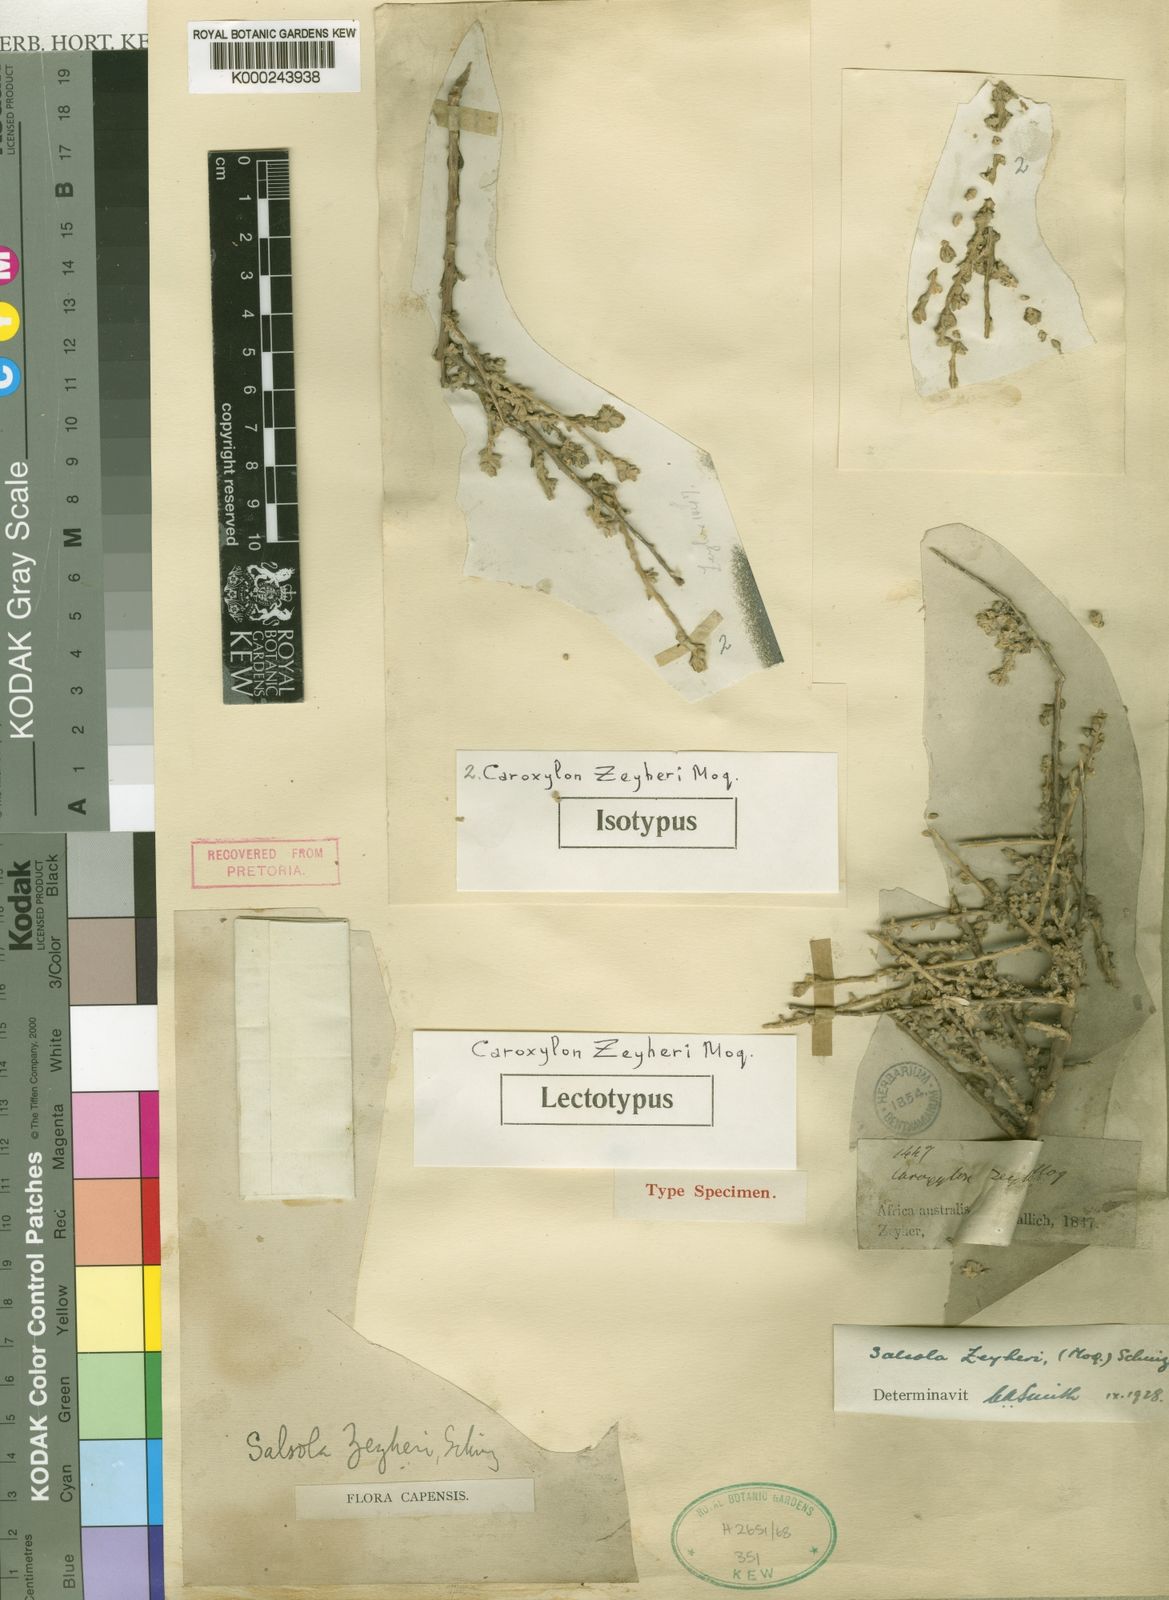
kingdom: Plantae
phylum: Tracheophyta
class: Magnoliopsida
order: Caryophyllales
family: Amaranthaceae
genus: Caroxylon
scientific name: Caroxylon zeyheri
